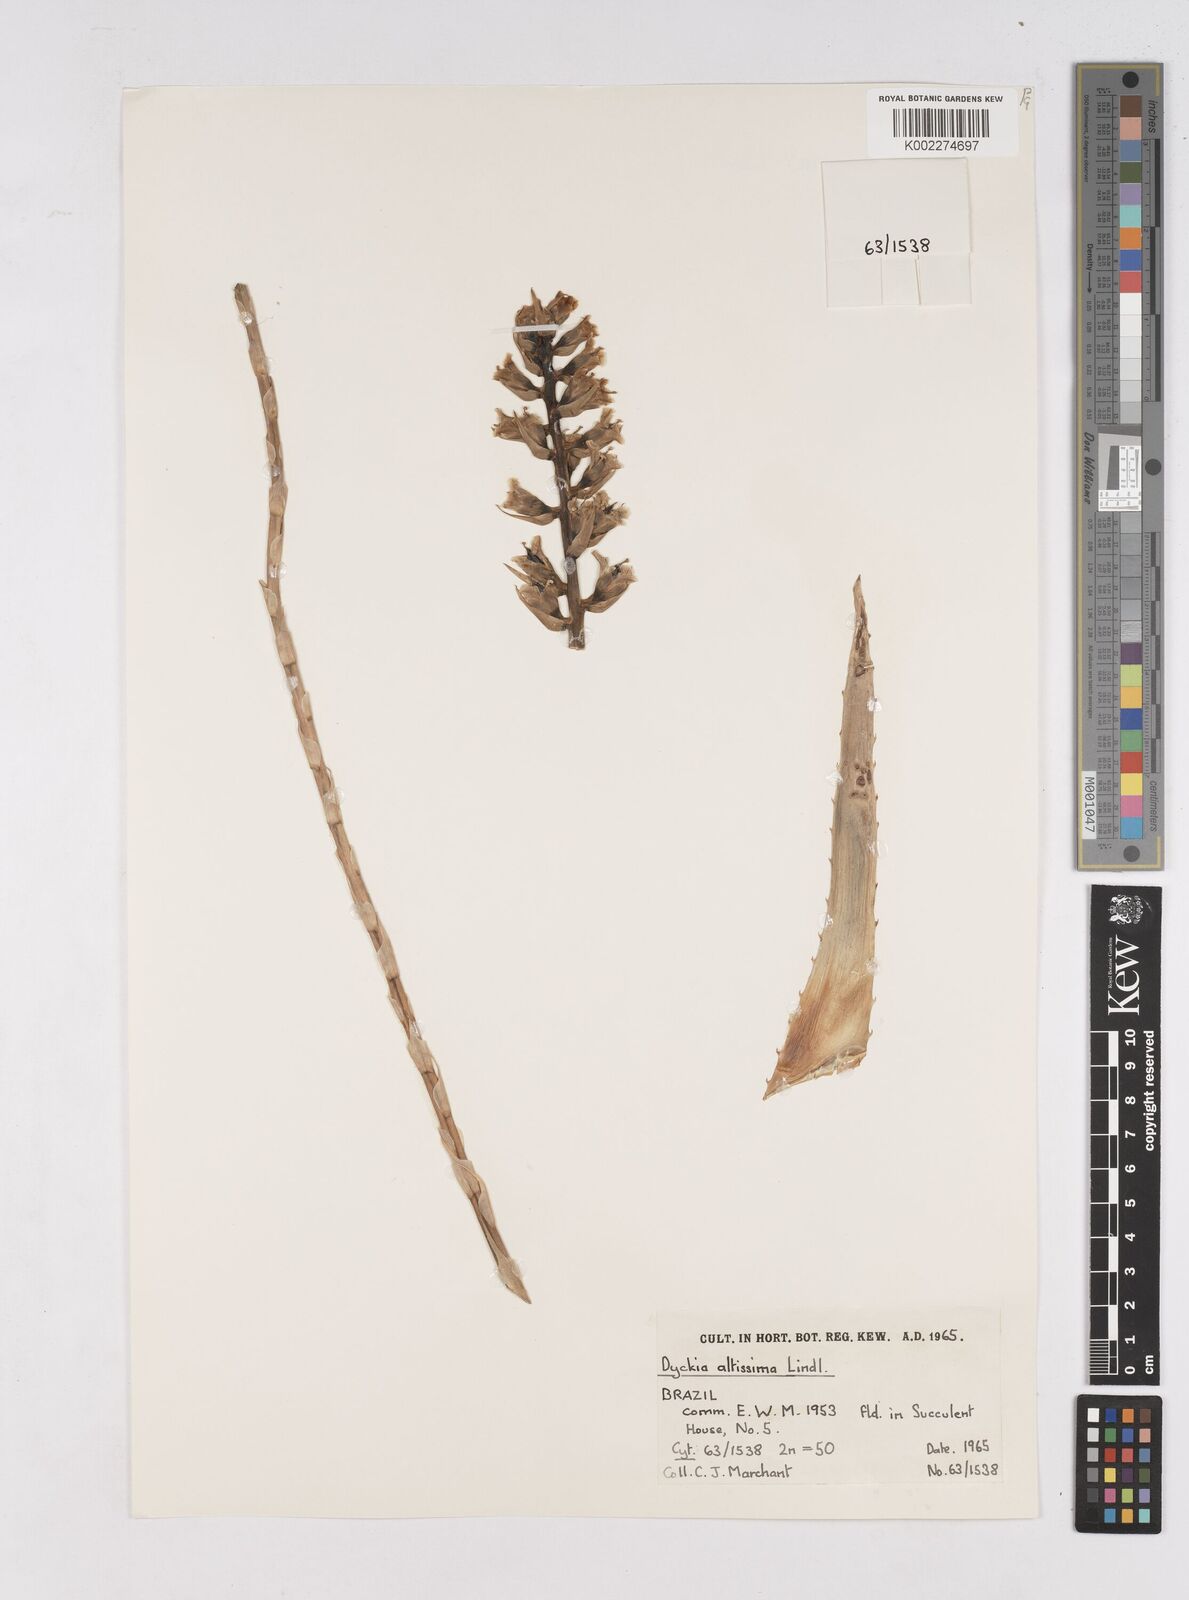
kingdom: Plantae
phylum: Tracheophyta
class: Liliopsida
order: Poales
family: Bromeliaceae
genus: Dyckia
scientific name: Dyckia encholirioides
